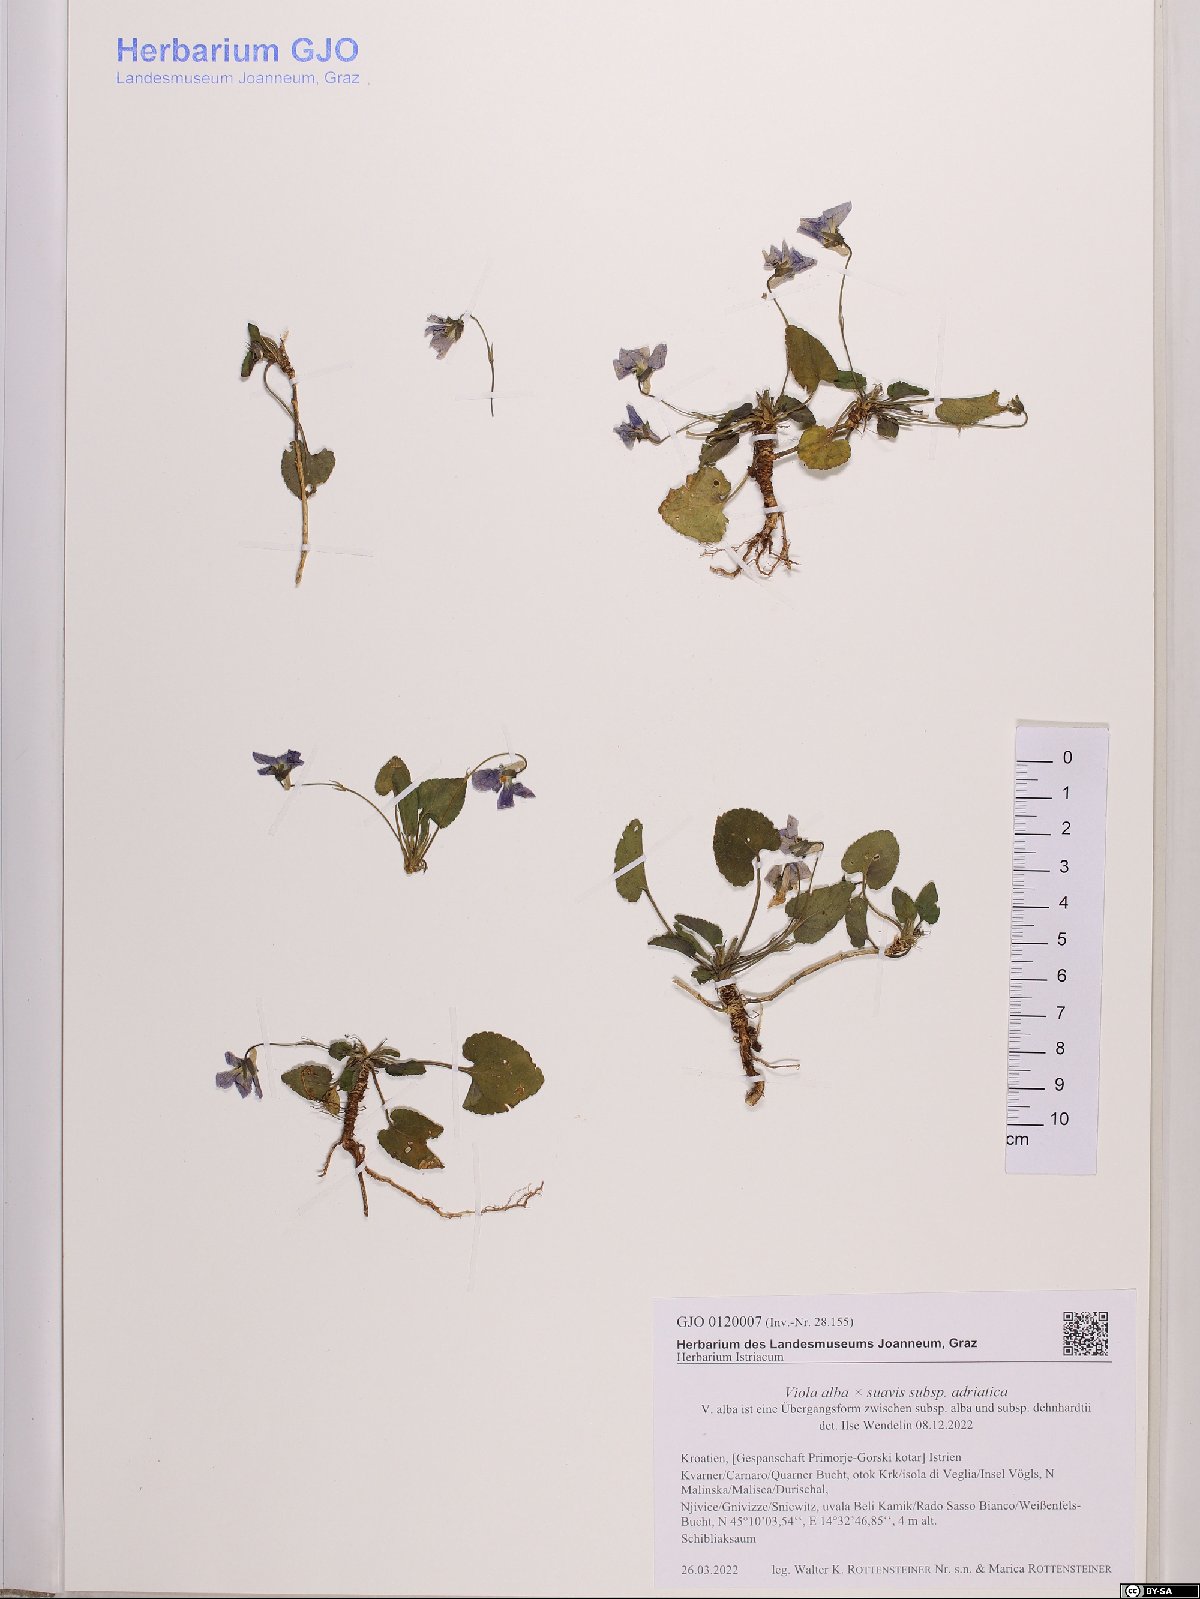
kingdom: Plantae
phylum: Tracheophyta
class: Magnoliopsida
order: Malpighiales
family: Violaceae
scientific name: Violaceae
